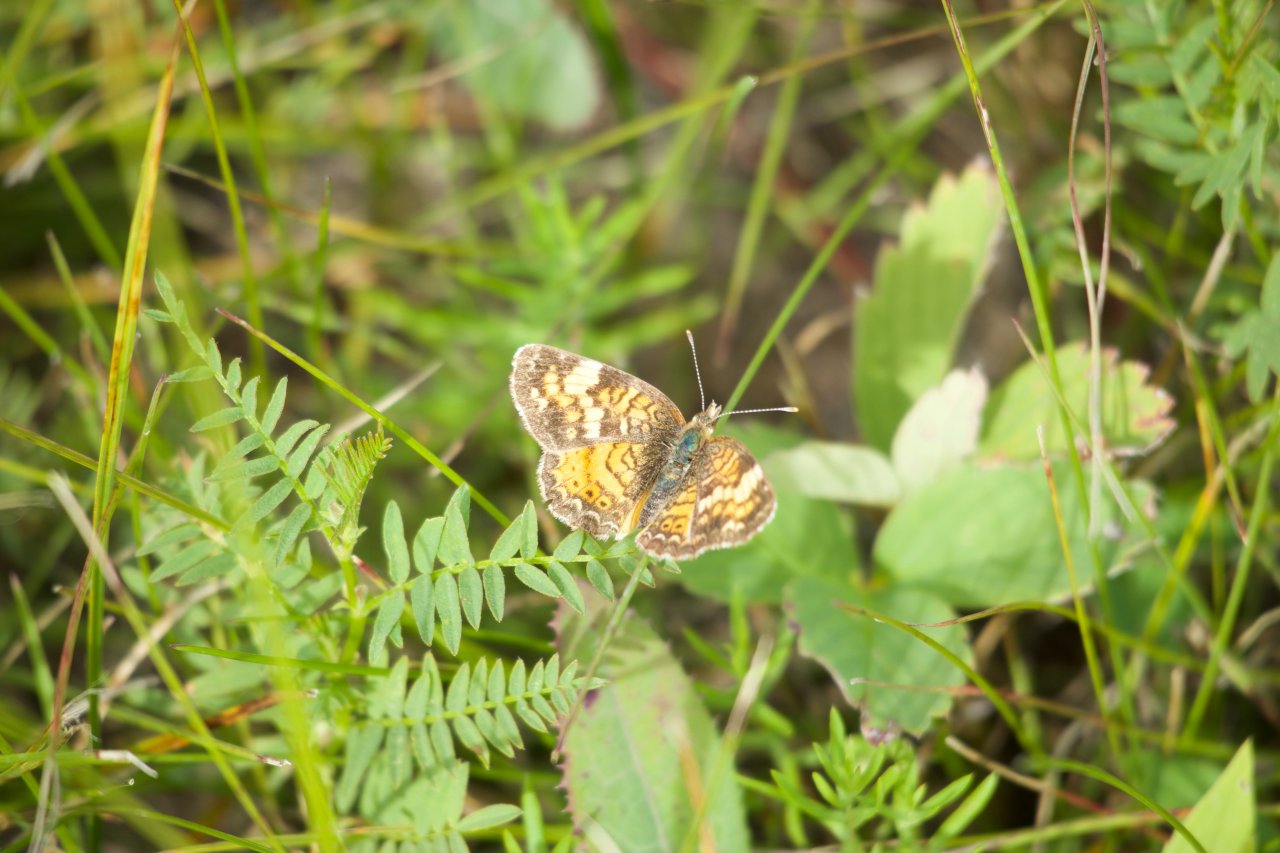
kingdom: Animalia
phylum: Arthropoda
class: Insecta
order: Lepidoptera
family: Nymphalidae
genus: Phyciodes
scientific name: Phyciodes tharos
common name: Northern Crescent
